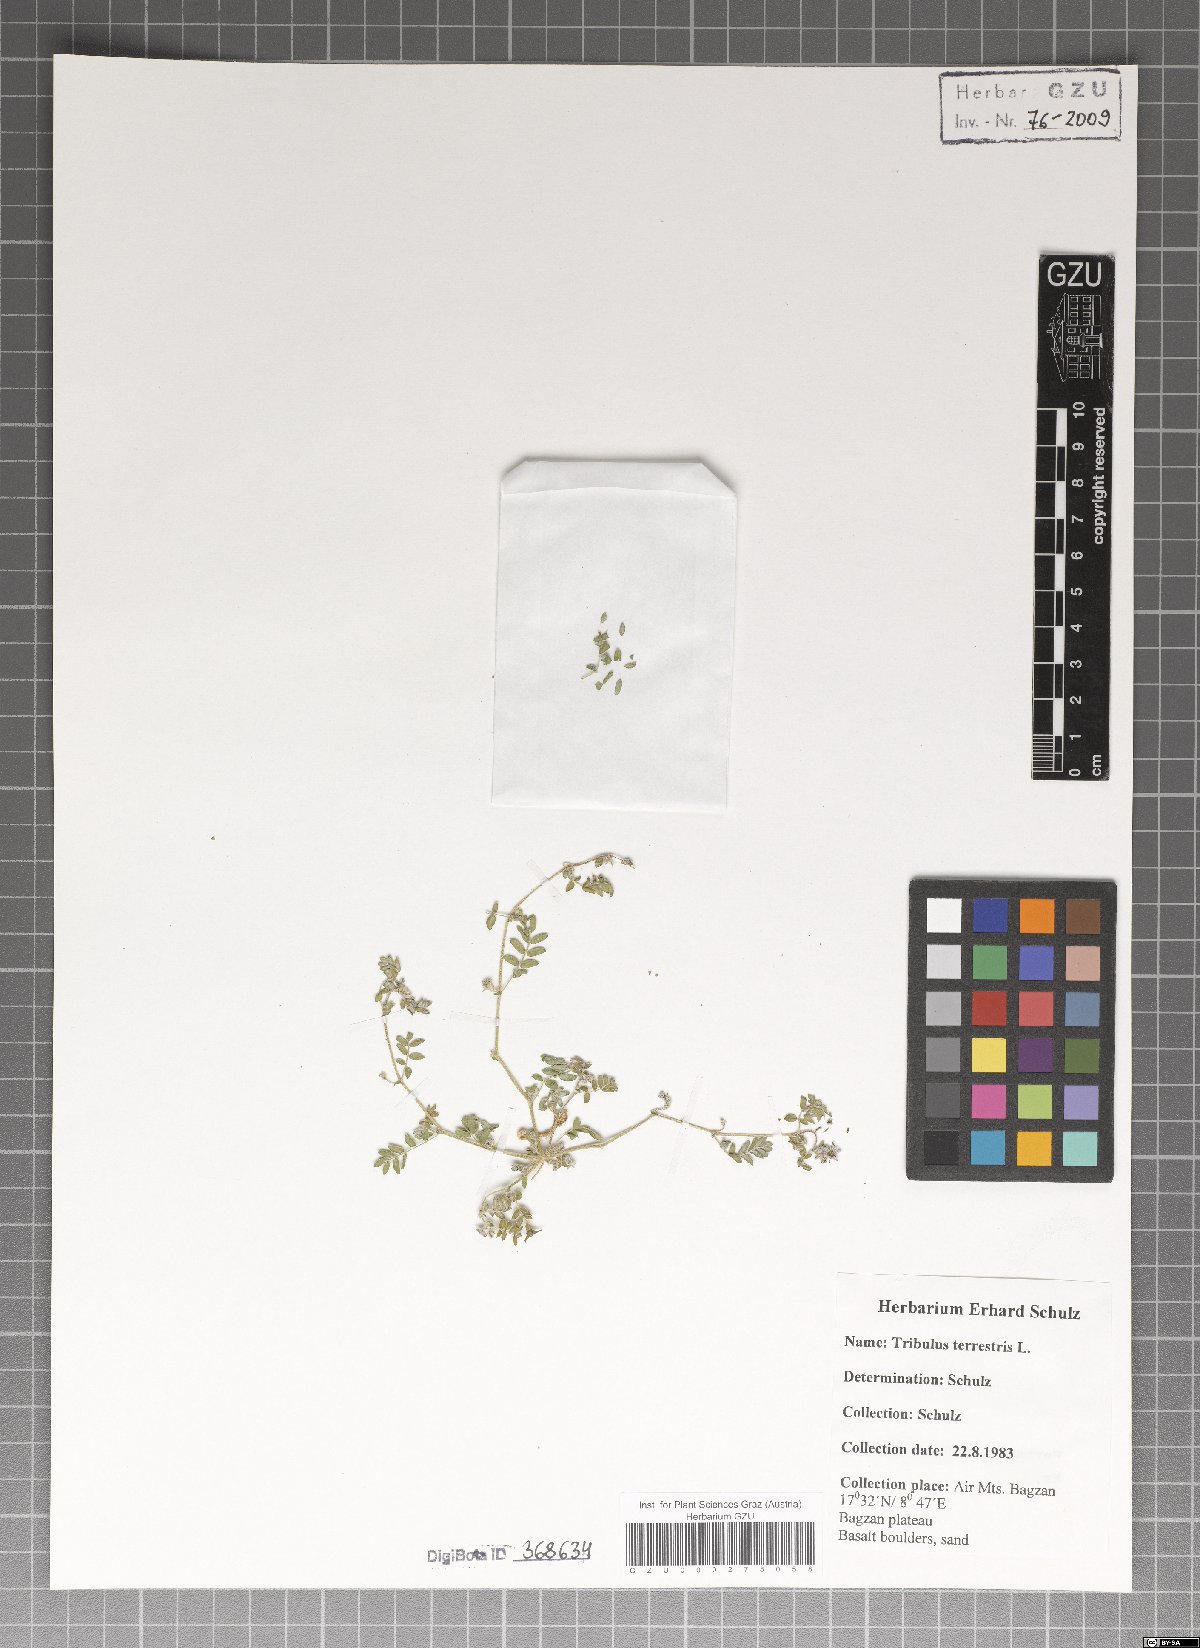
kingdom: Plantae
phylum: Tracheophyta
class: Magnoliopsida
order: Zygophyllales
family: Zygophyllaceae
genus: Tribulus
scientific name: Tribulus terrestris
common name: Puncturevine
